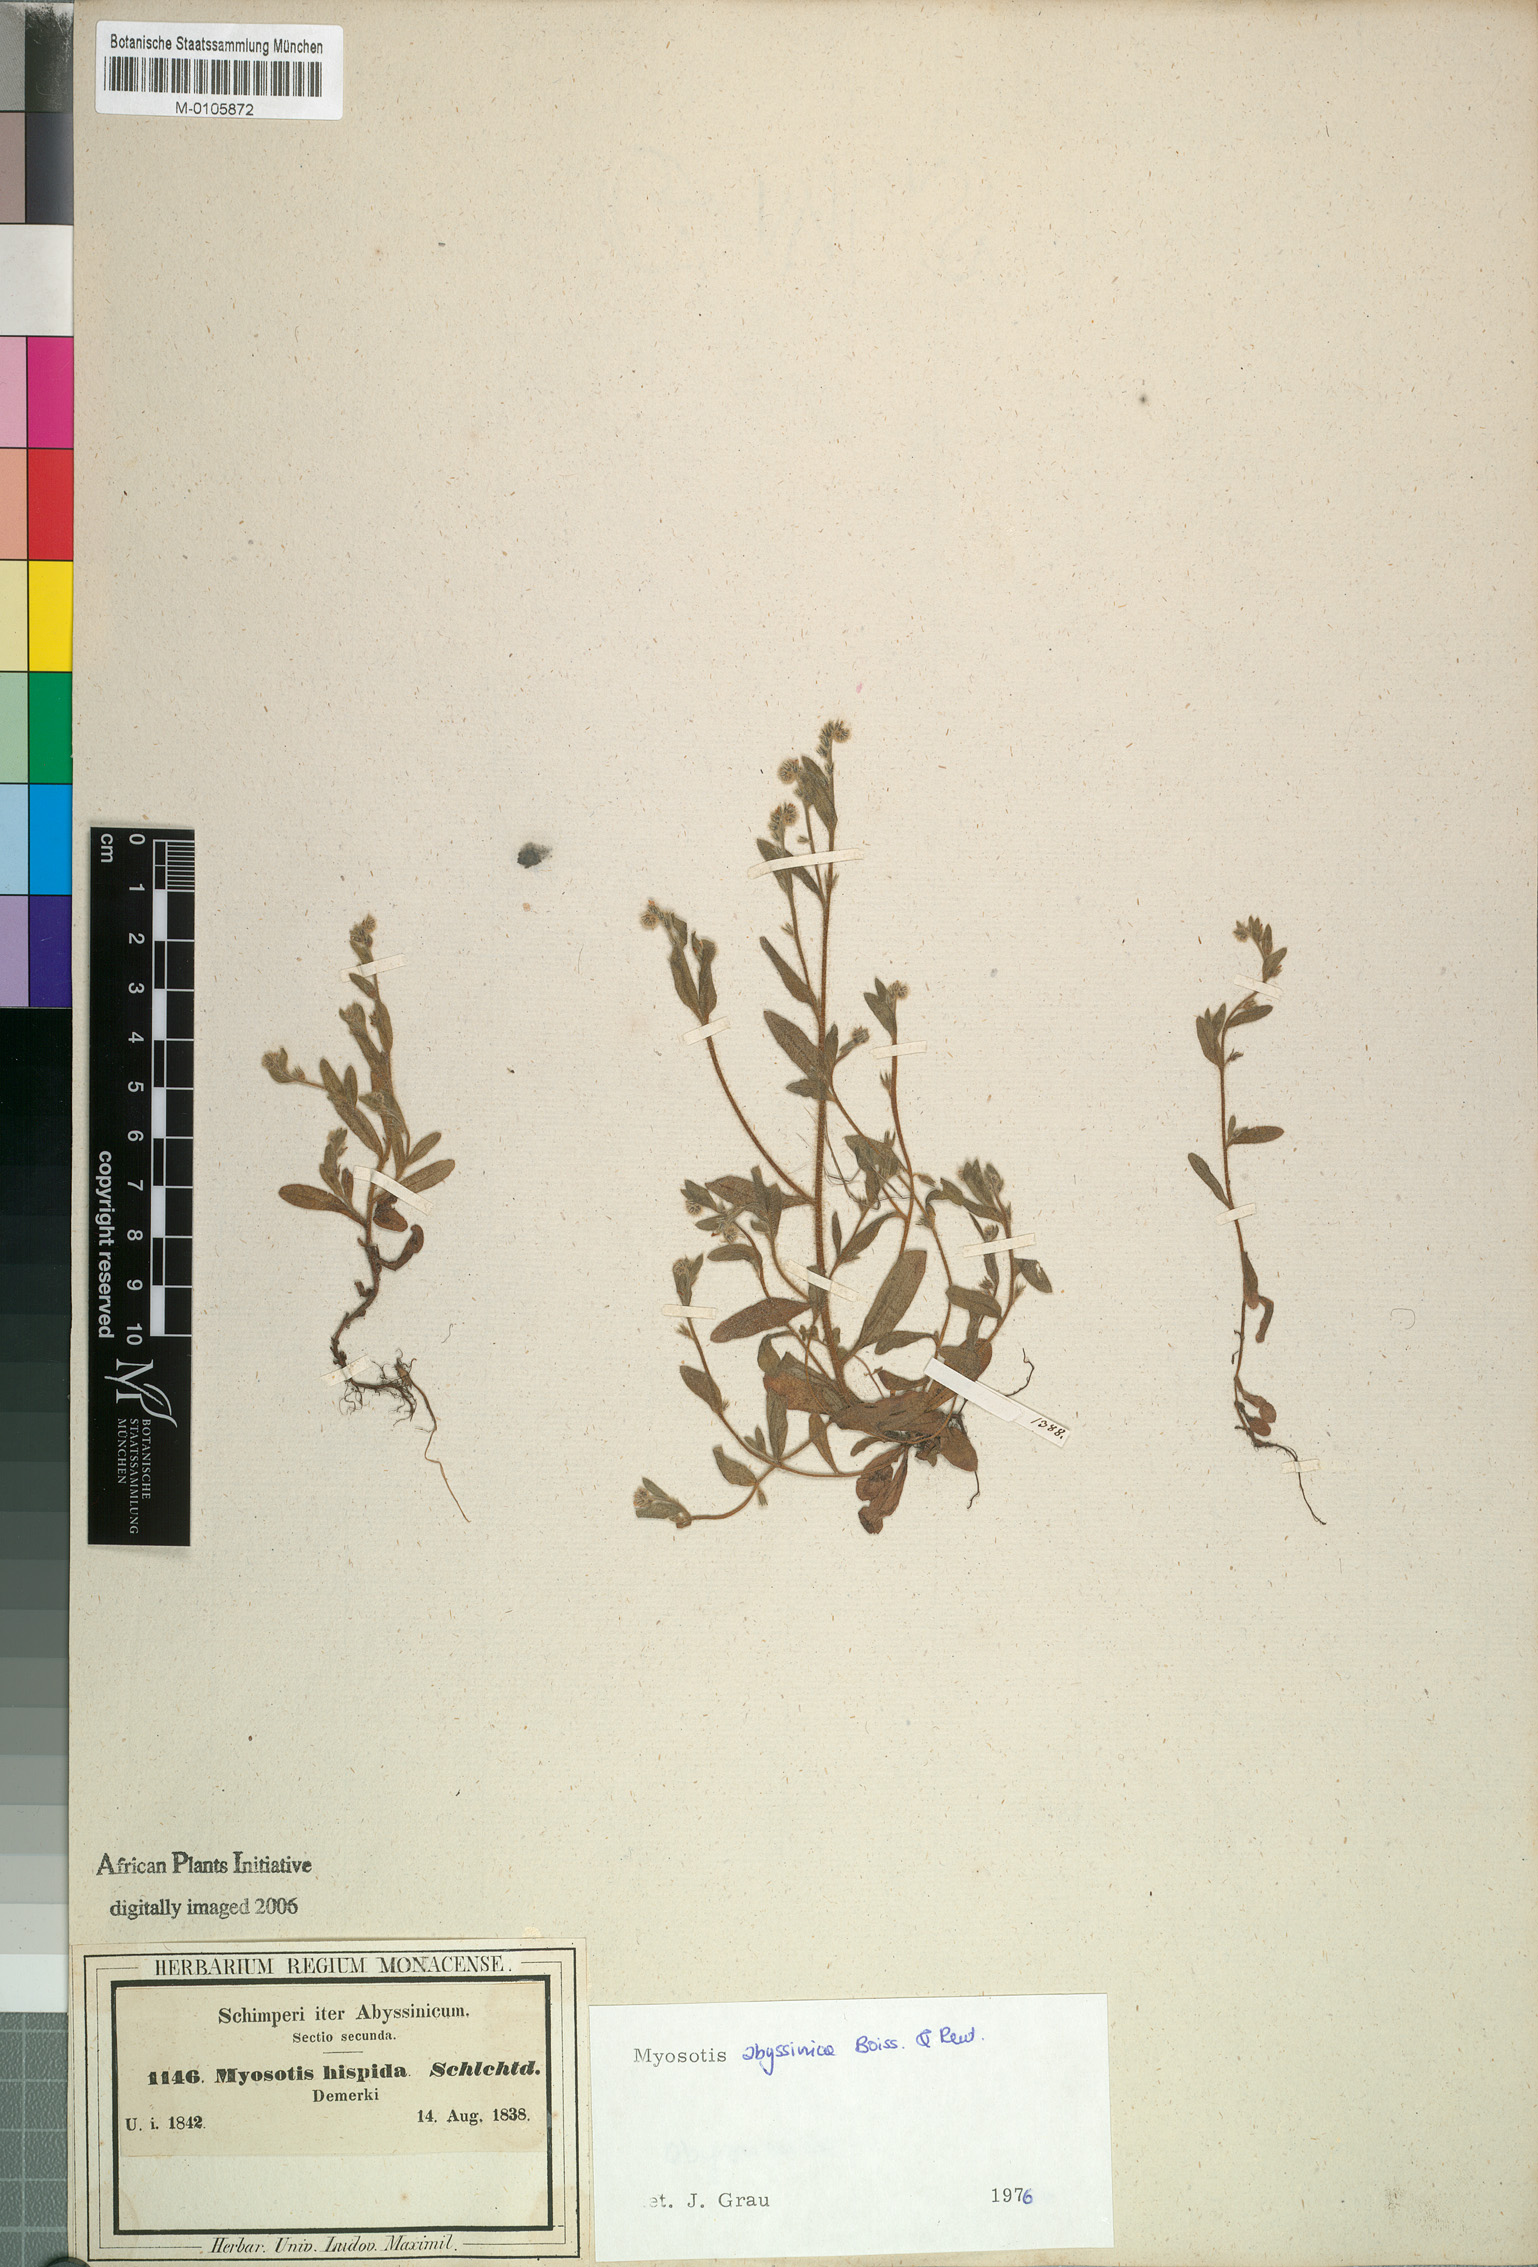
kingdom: Plantae
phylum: Tracheophyta
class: Magnoliopsida
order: Boraginales
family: Boraginaceae
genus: Myosotis
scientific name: Myosotis abyssinica
